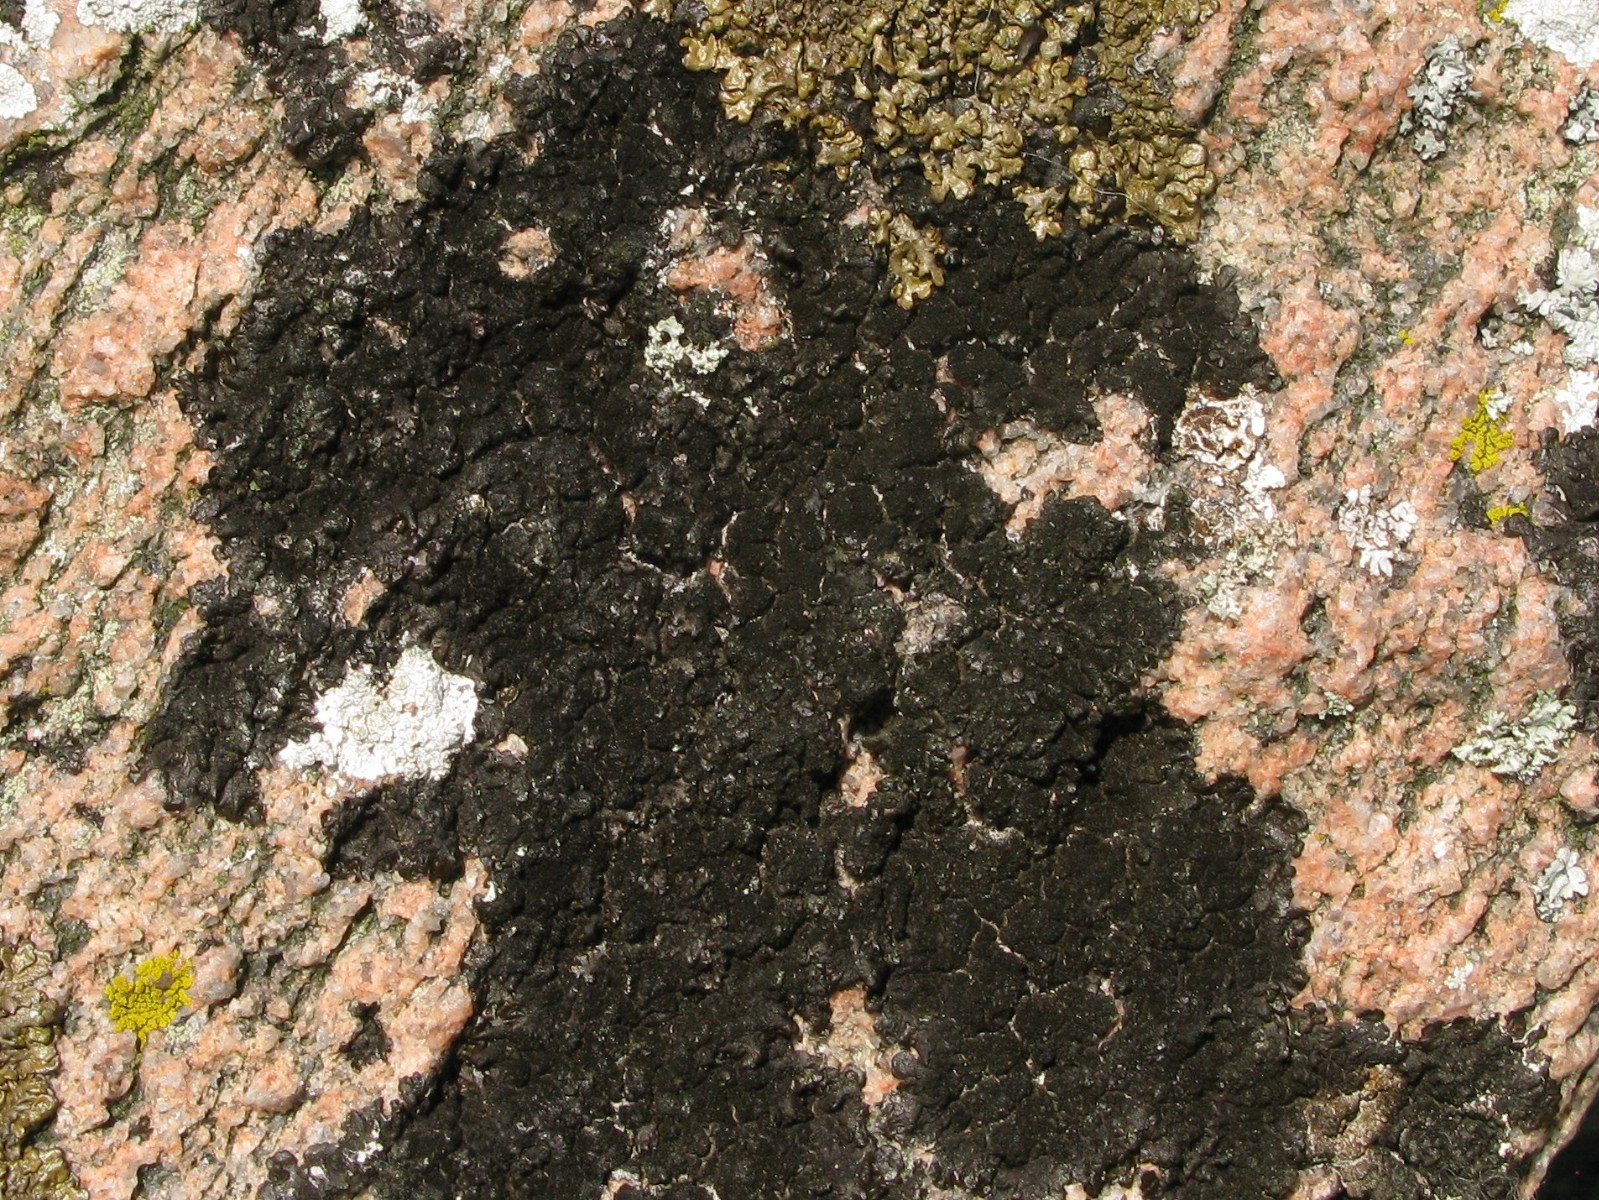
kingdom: Fungi
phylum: Ascomycota
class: Lecanoromycetes
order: Lecanorales
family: Parmeliaceae
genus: Melanelixia
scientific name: Melanelixia fuliginosa
